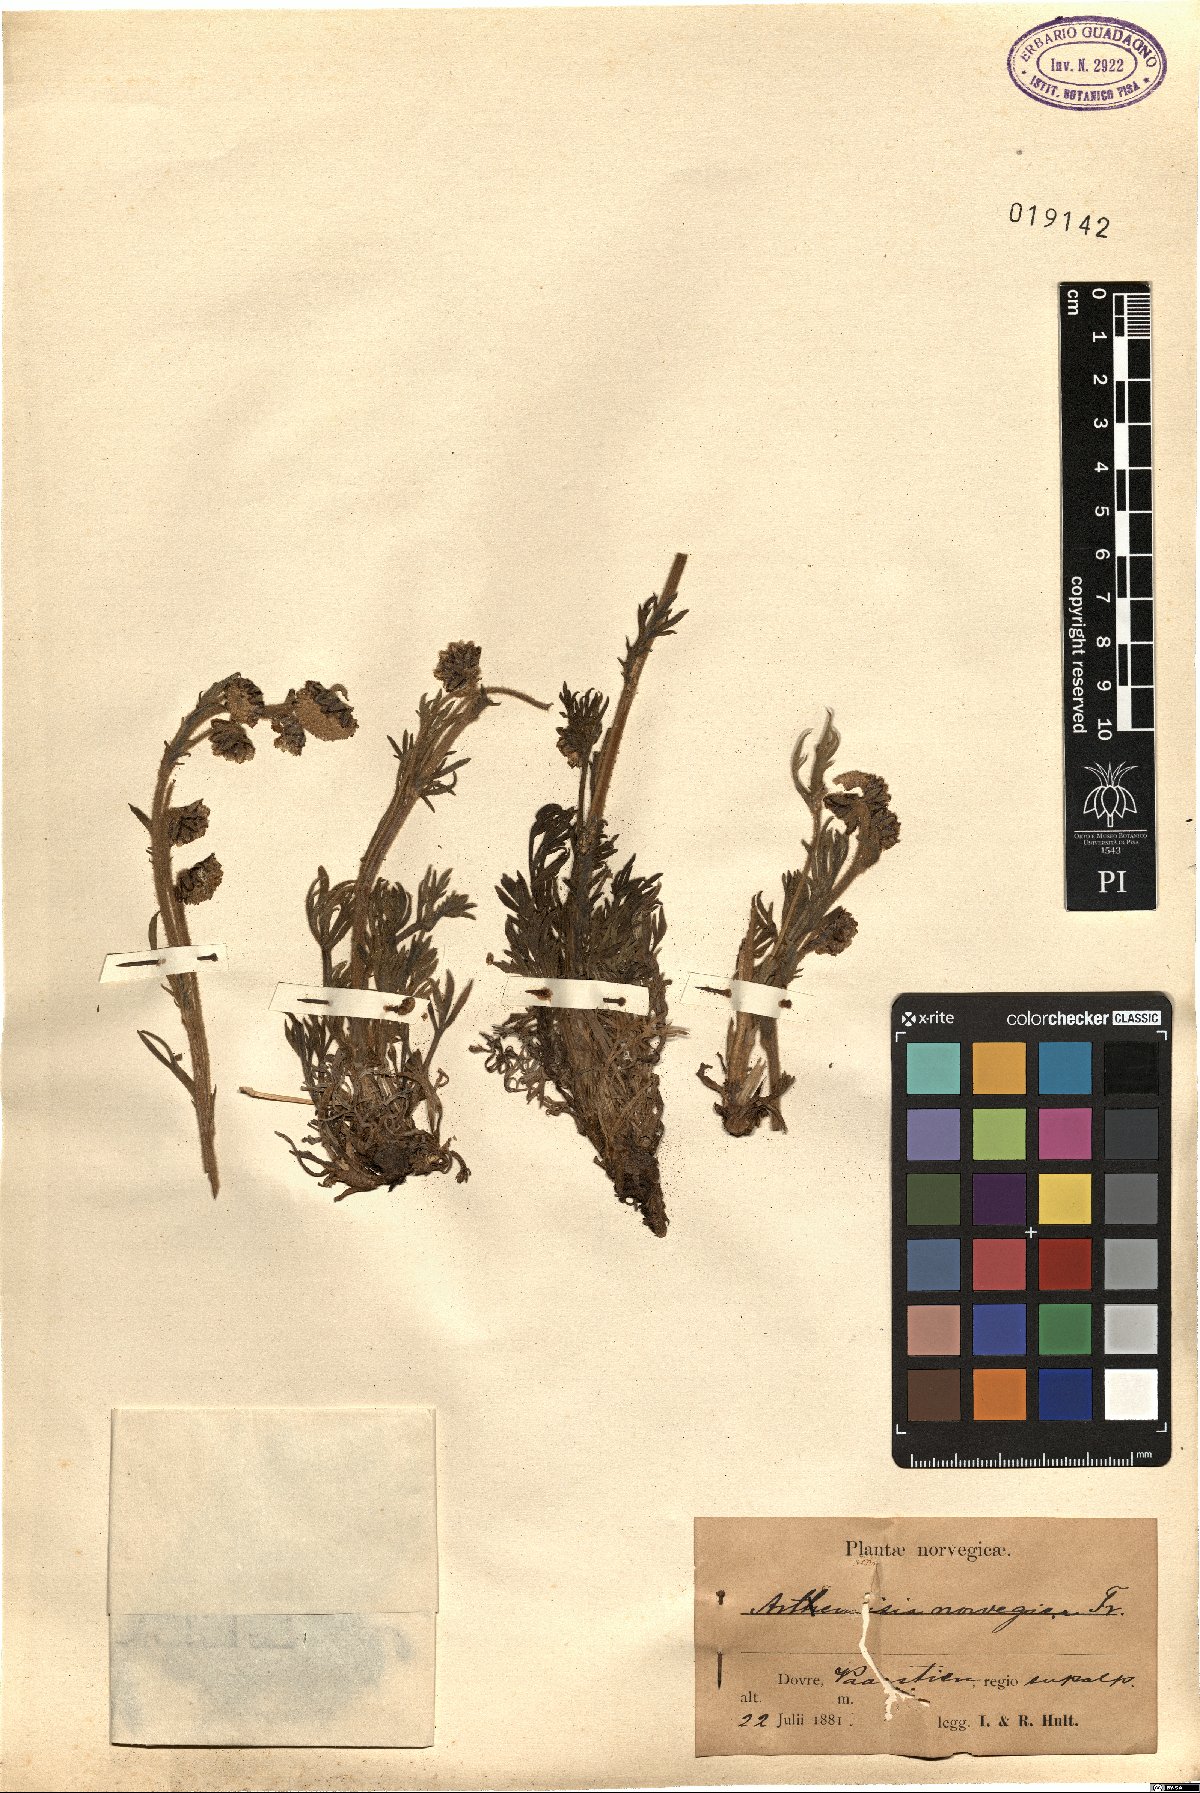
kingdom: Plantae
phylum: Tracheophyta
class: Magnoliopsida
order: Asterales
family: Asteraceae
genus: Artemisia
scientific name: Artemisia norvegica
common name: Norwegian mugwort
